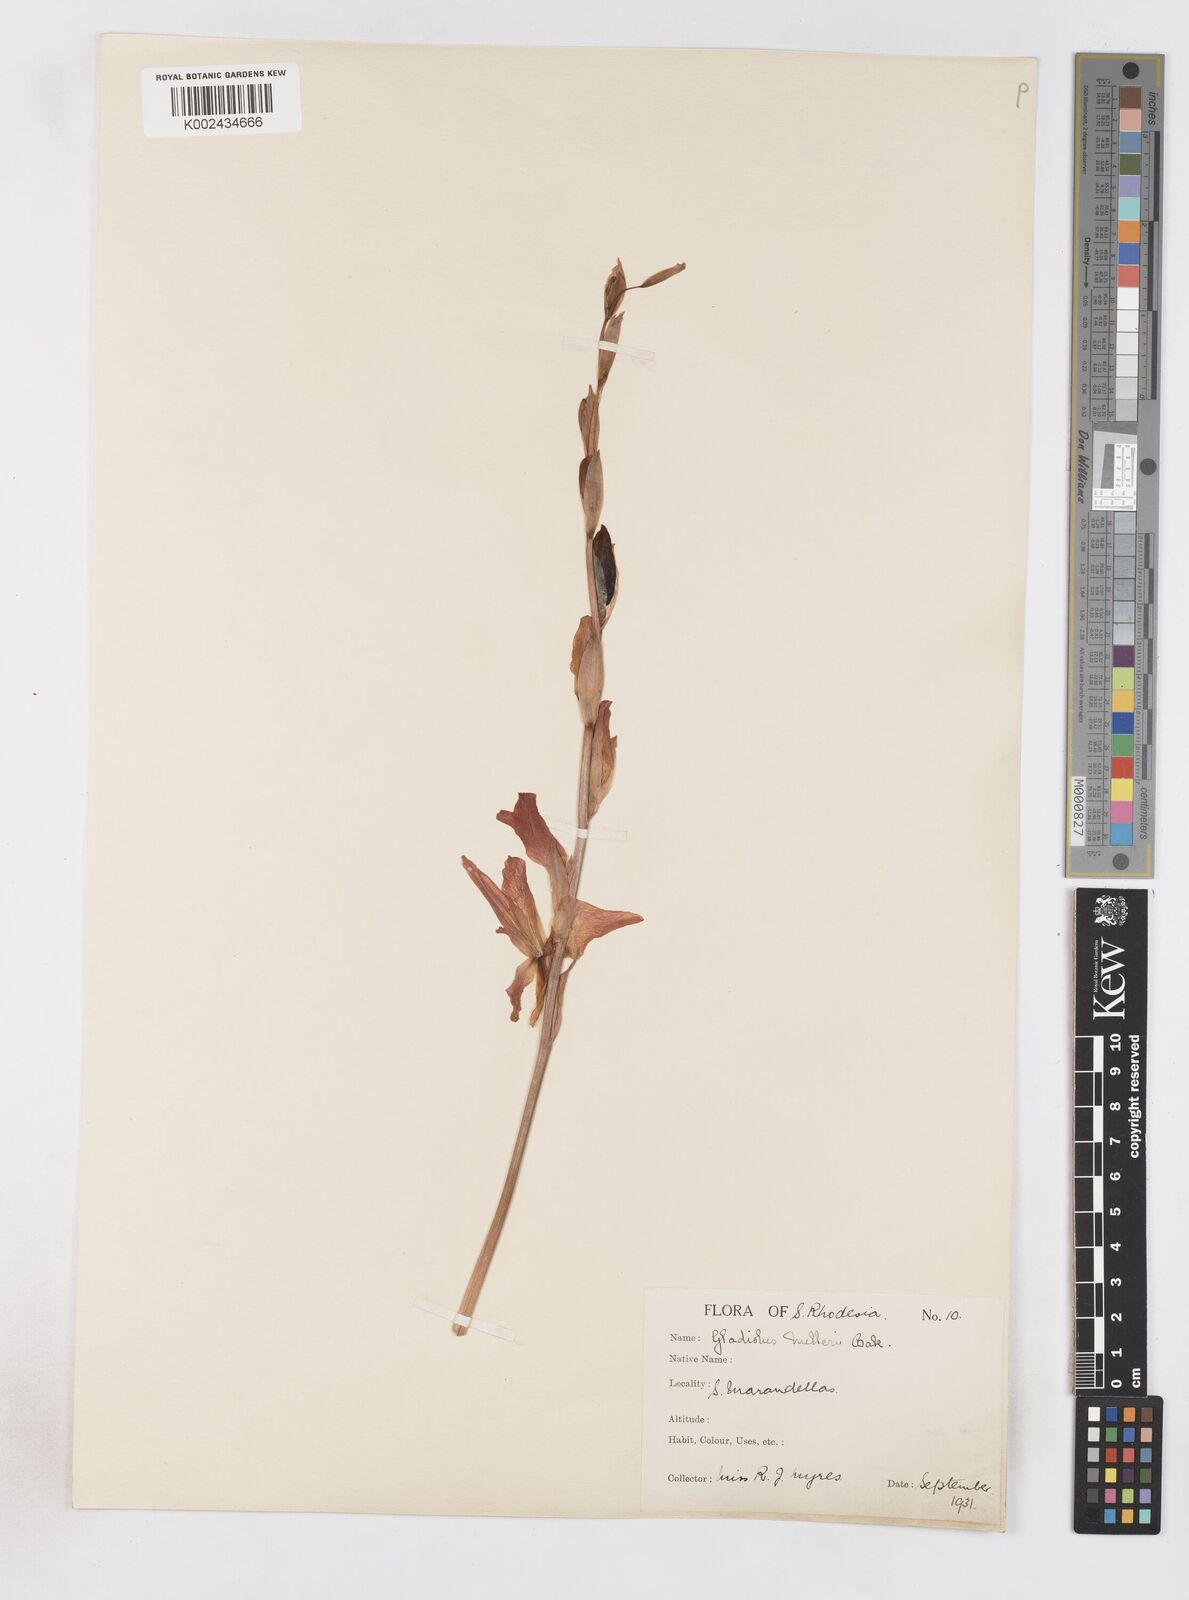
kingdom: Plantae
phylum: Tracheophyta
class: Liliopsida
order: Asparagales
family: Iridaceae
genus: Gladiolus
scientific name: Gladiolus melleri
